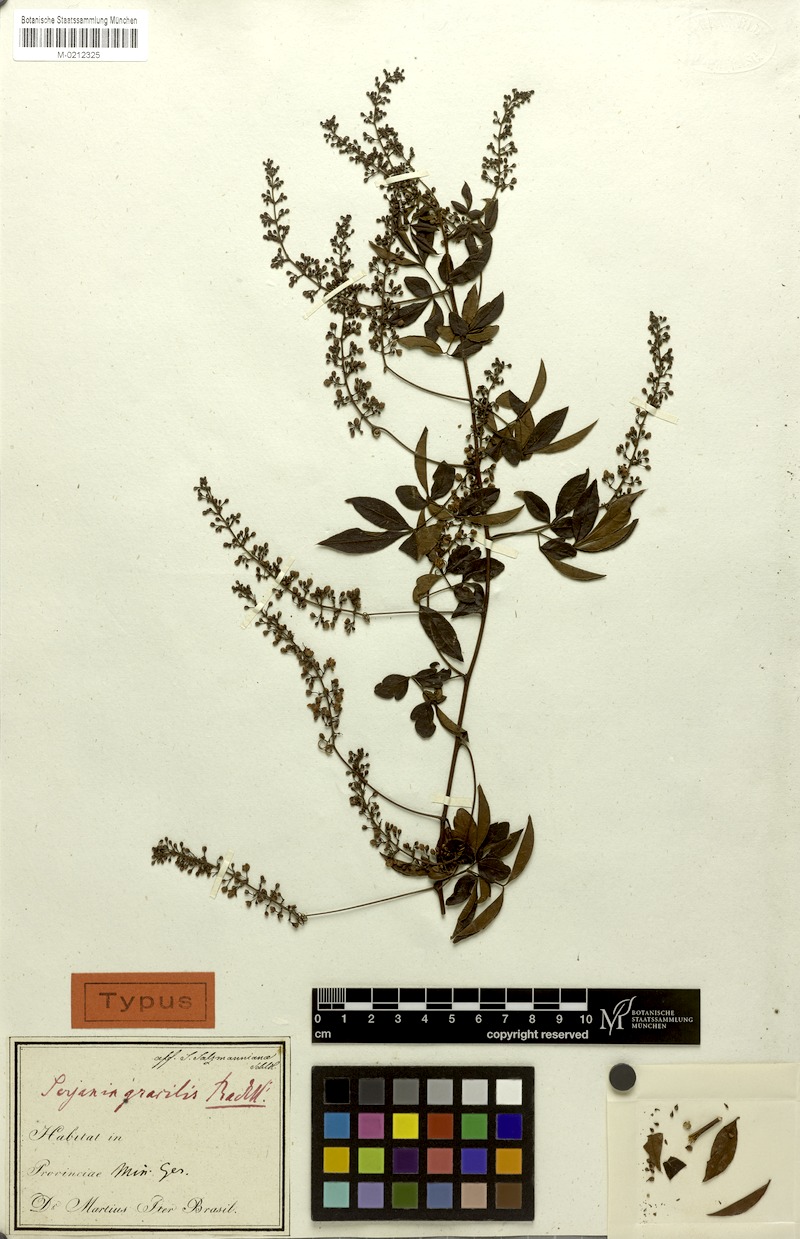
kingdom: Plantae
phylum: Tracheophyta
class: Magnoliopsida
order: Sapindales
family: Sapindaceae
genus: Serjania
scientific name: Serjania gracilis
